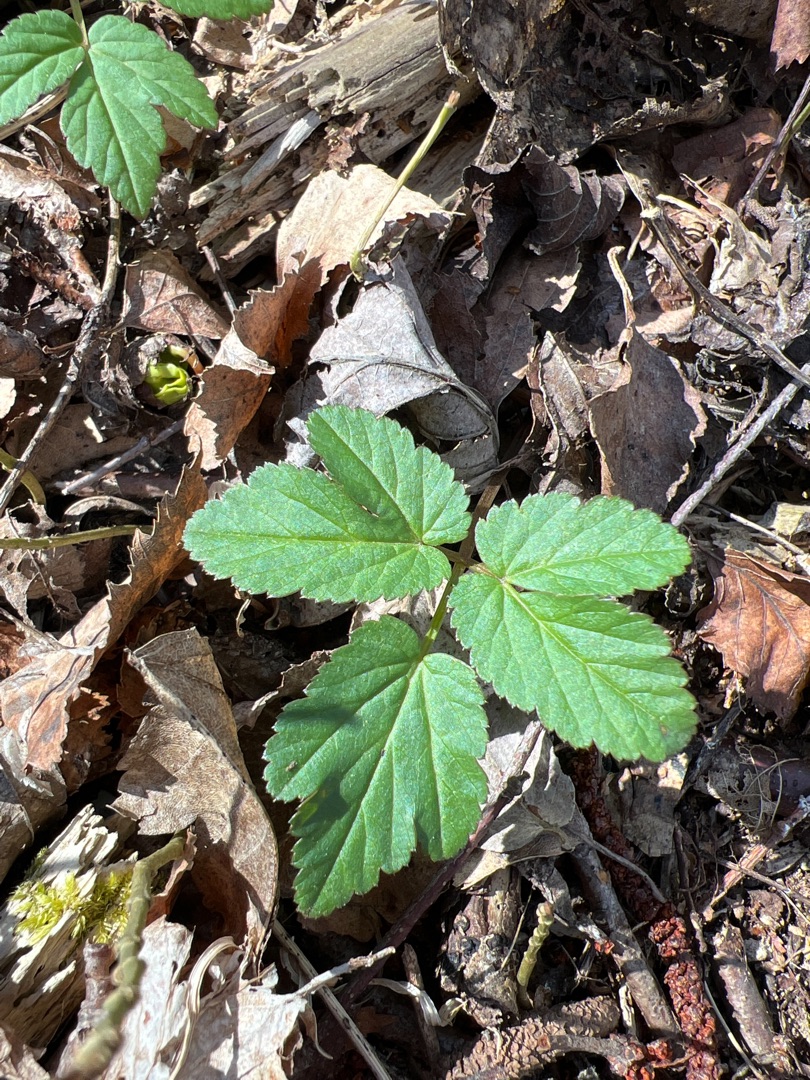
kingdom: Plantae
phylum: Tracheophyta
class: Magnoliopsida
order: Apiales
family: Apiaceae
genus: Aegopodium
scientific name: Aegopodium podagraria
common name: Skvalderkål
